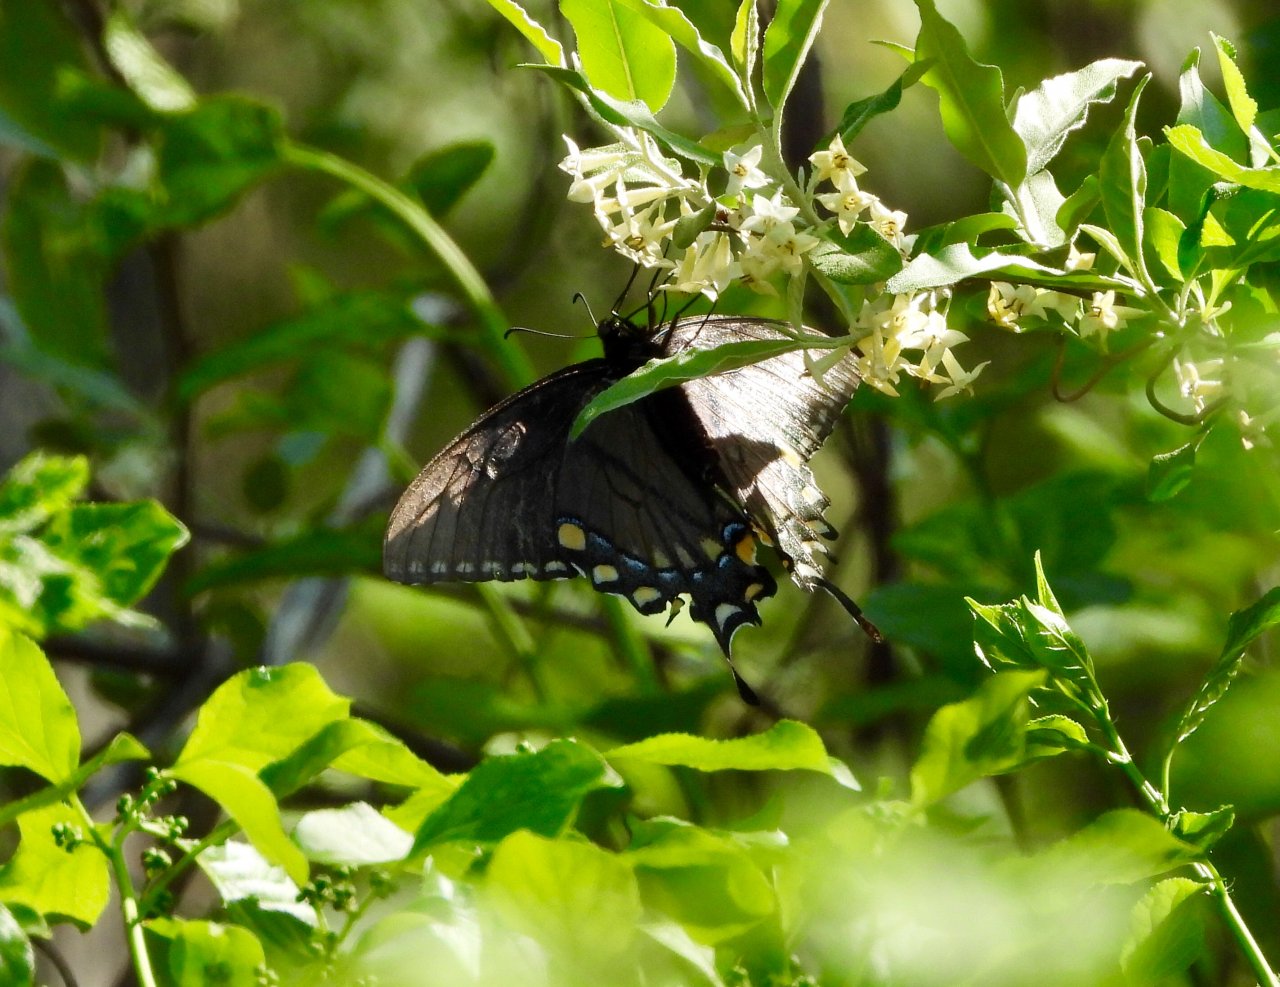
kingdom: Animalia
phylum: Arthropoda
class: Insecta
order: Lepidoptera
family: Papilionidae
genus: Pterourus
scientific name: Pterourus glaucus
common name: Eastern Tiger Swallowtail
